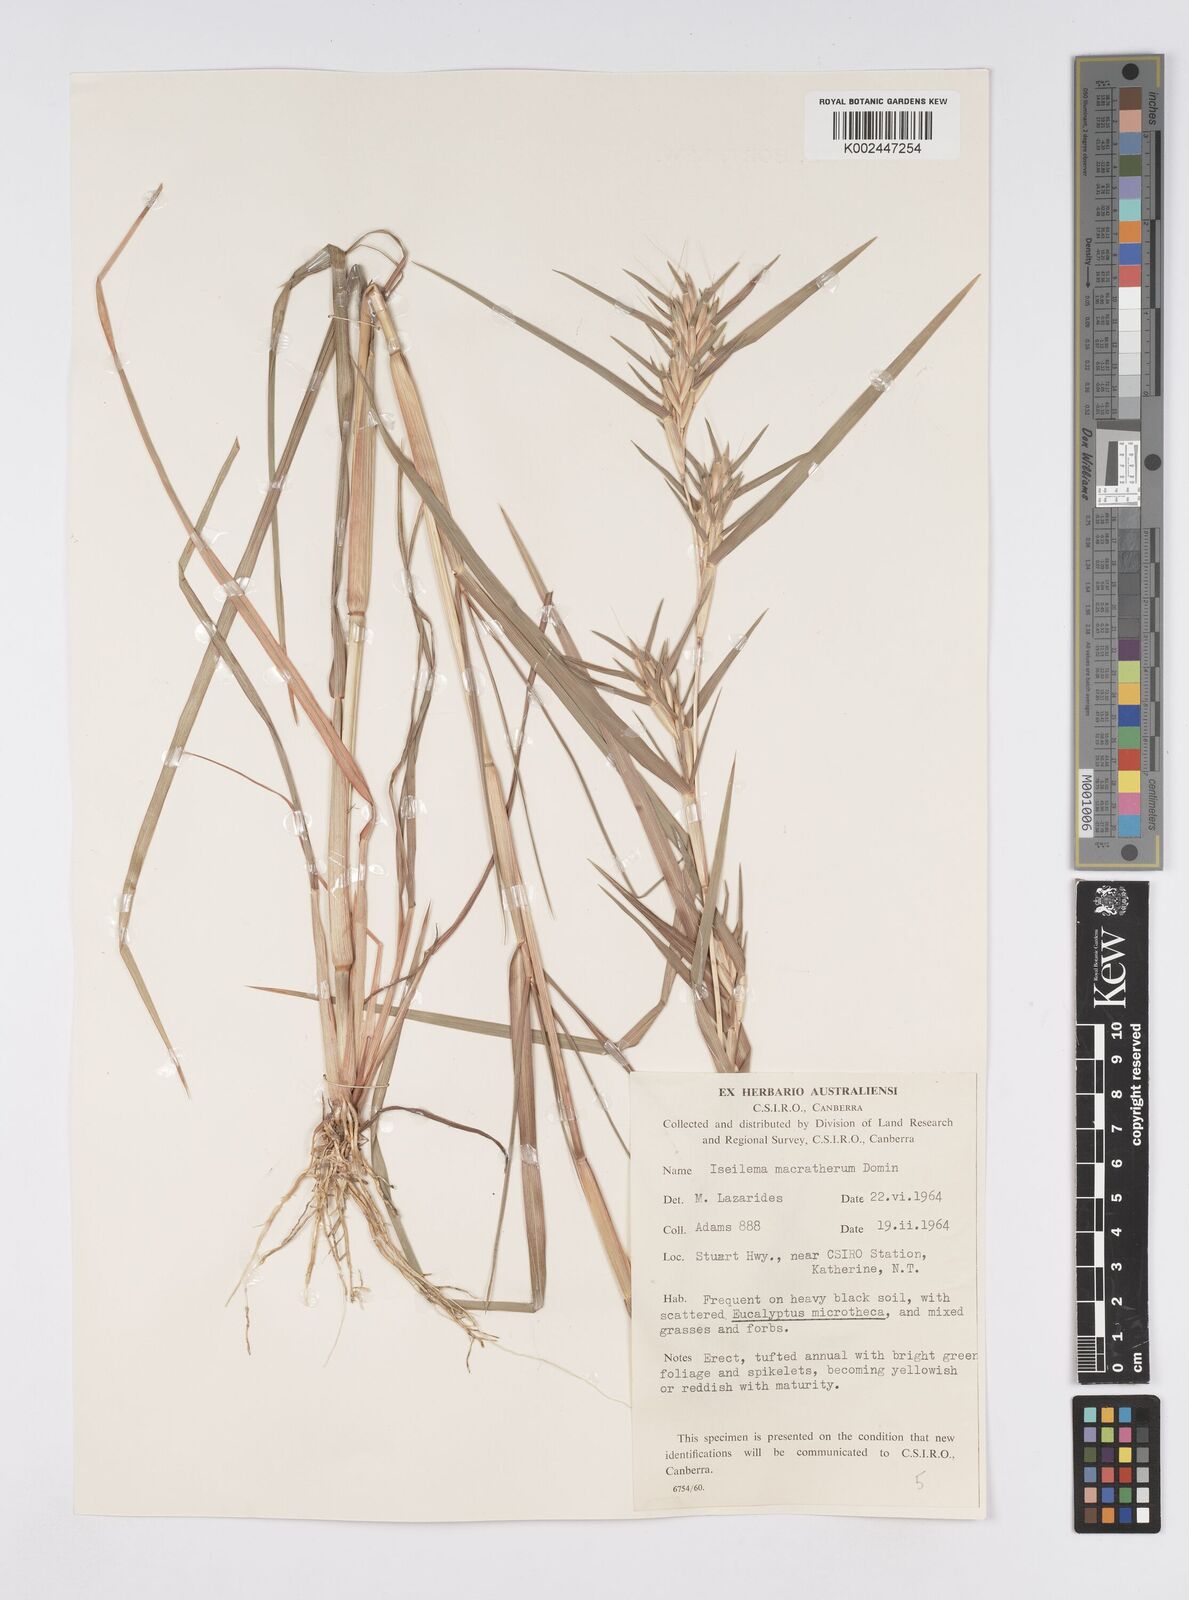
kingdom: Plantae
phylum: Tracheophyta
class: Liliopsida
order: Poales
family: Poaceae
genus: Iseilema
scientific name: Iseilema macratherum
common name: Bull flinders grass
